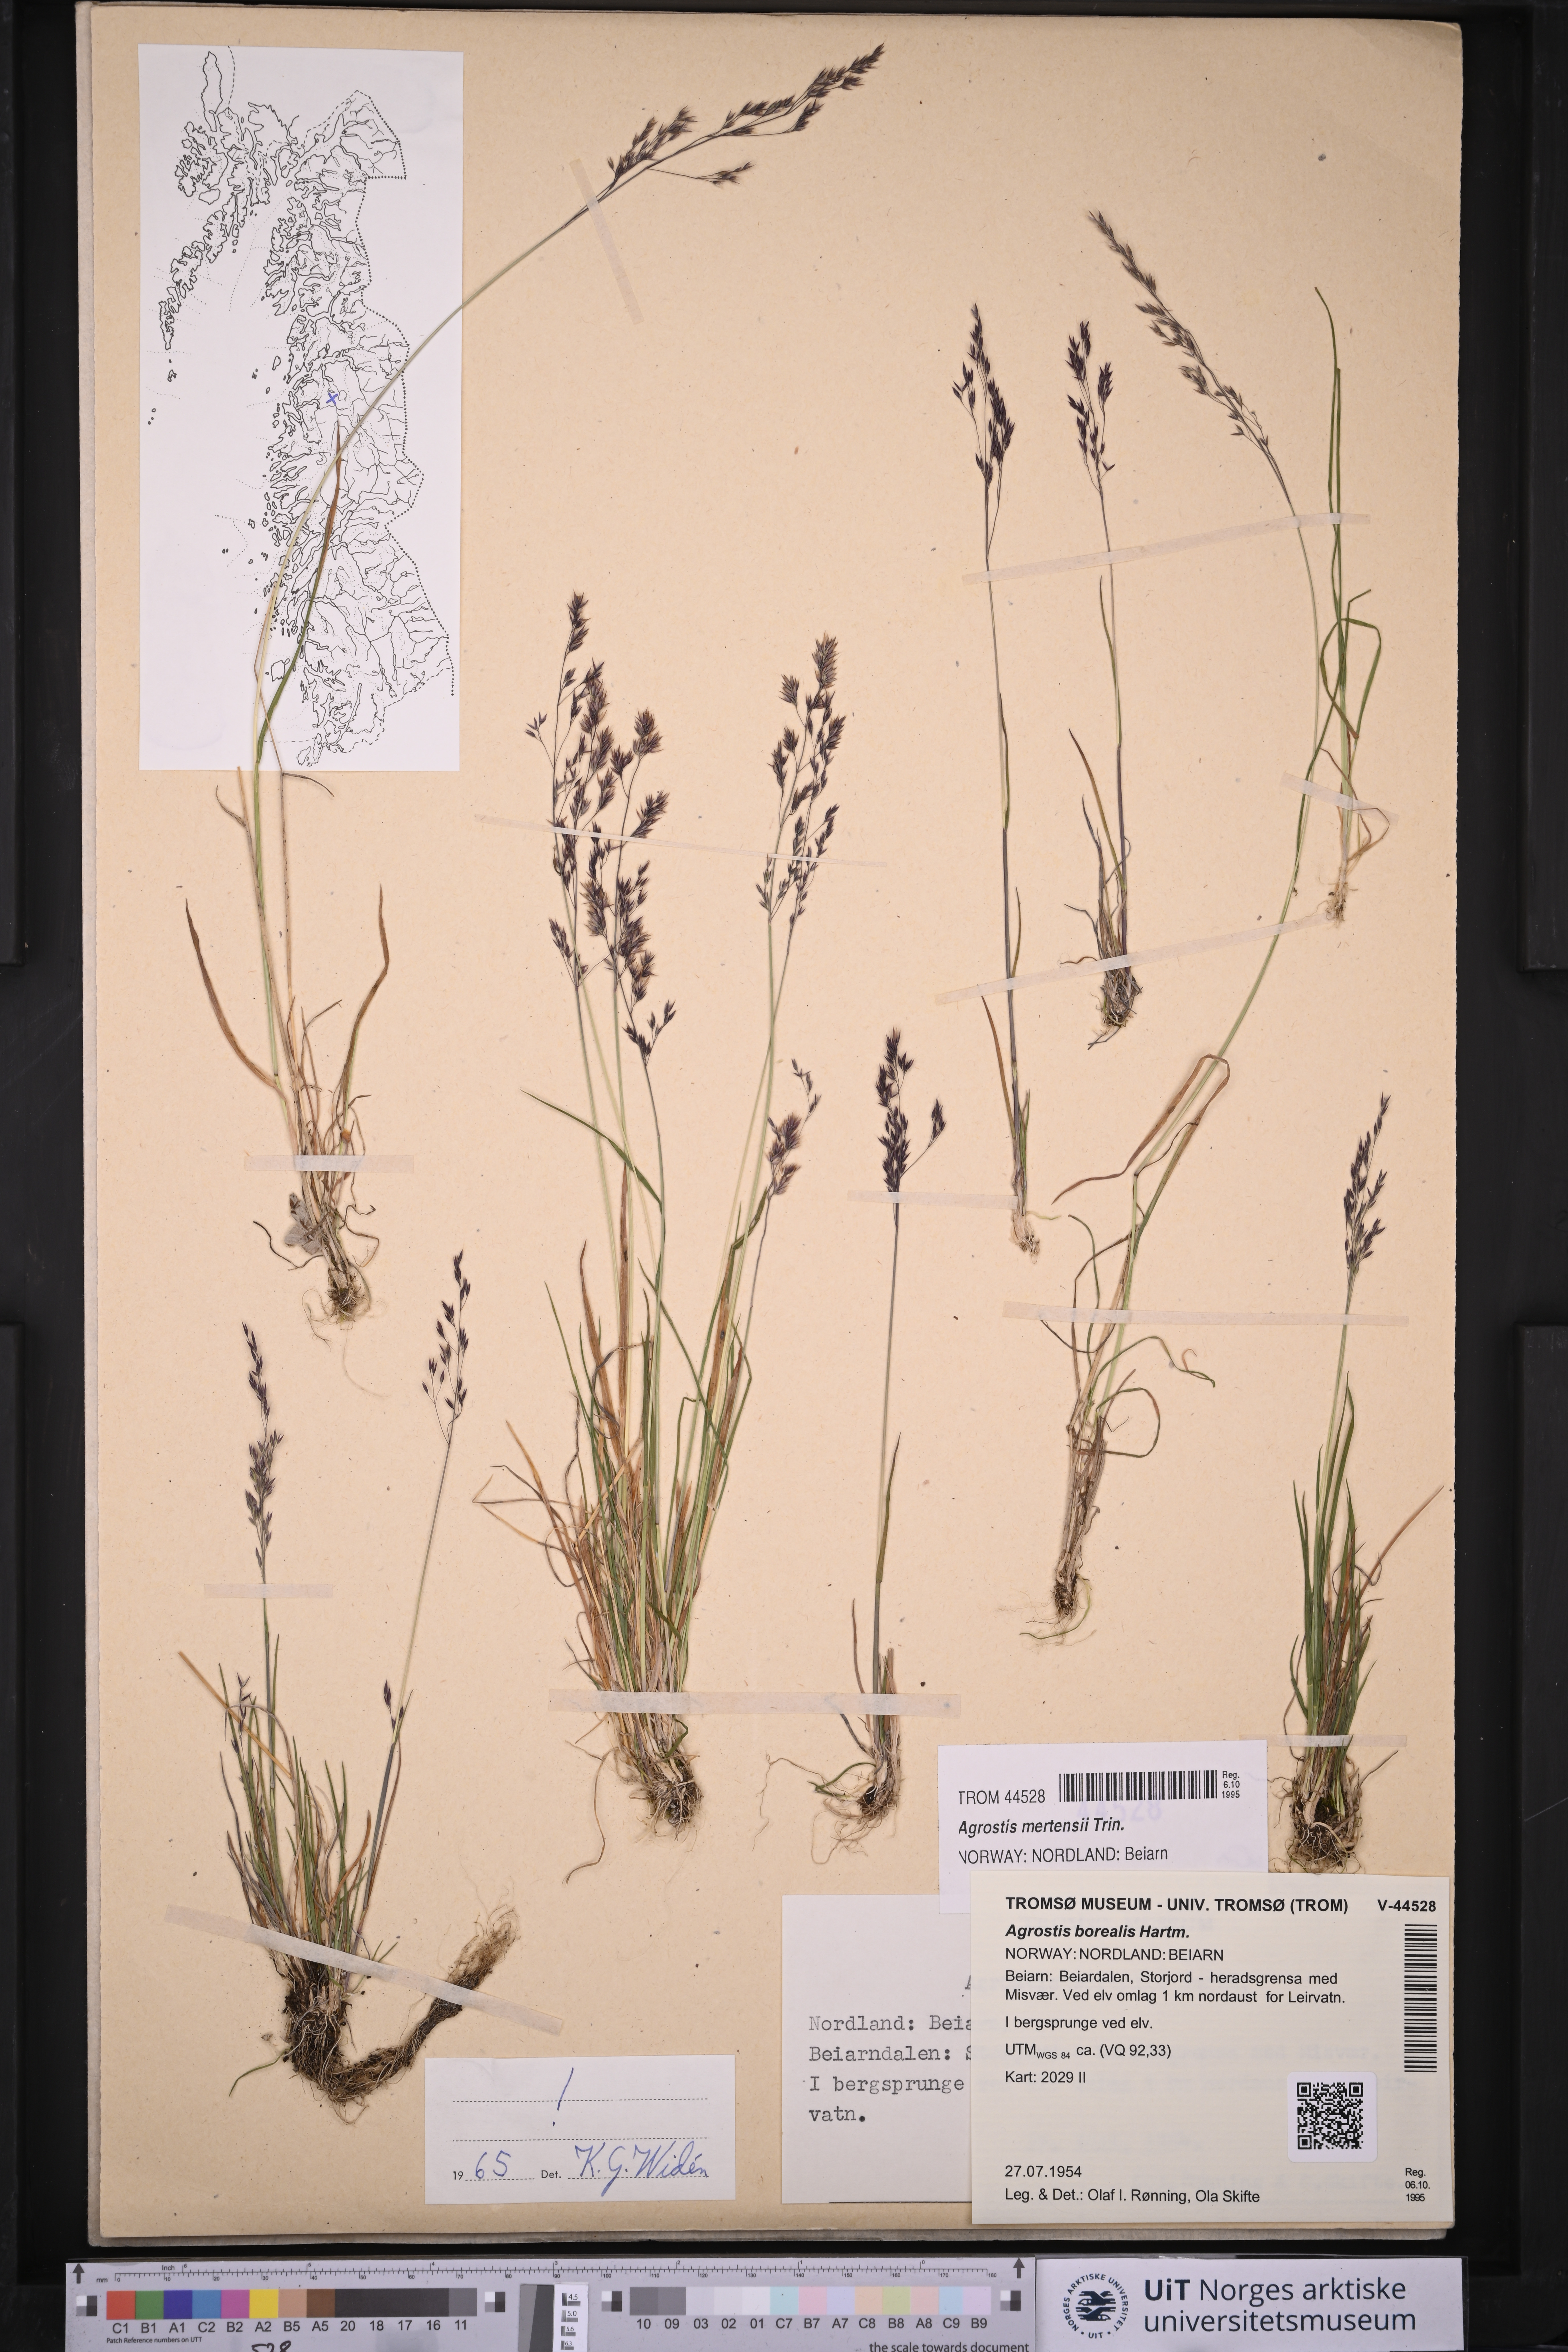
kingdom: Plantae
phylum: Tracheophyta
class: Liliopsida
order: Poales
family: Poaceae
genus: Agrostis
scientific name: Agrostis mertensii
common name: Northern bent
